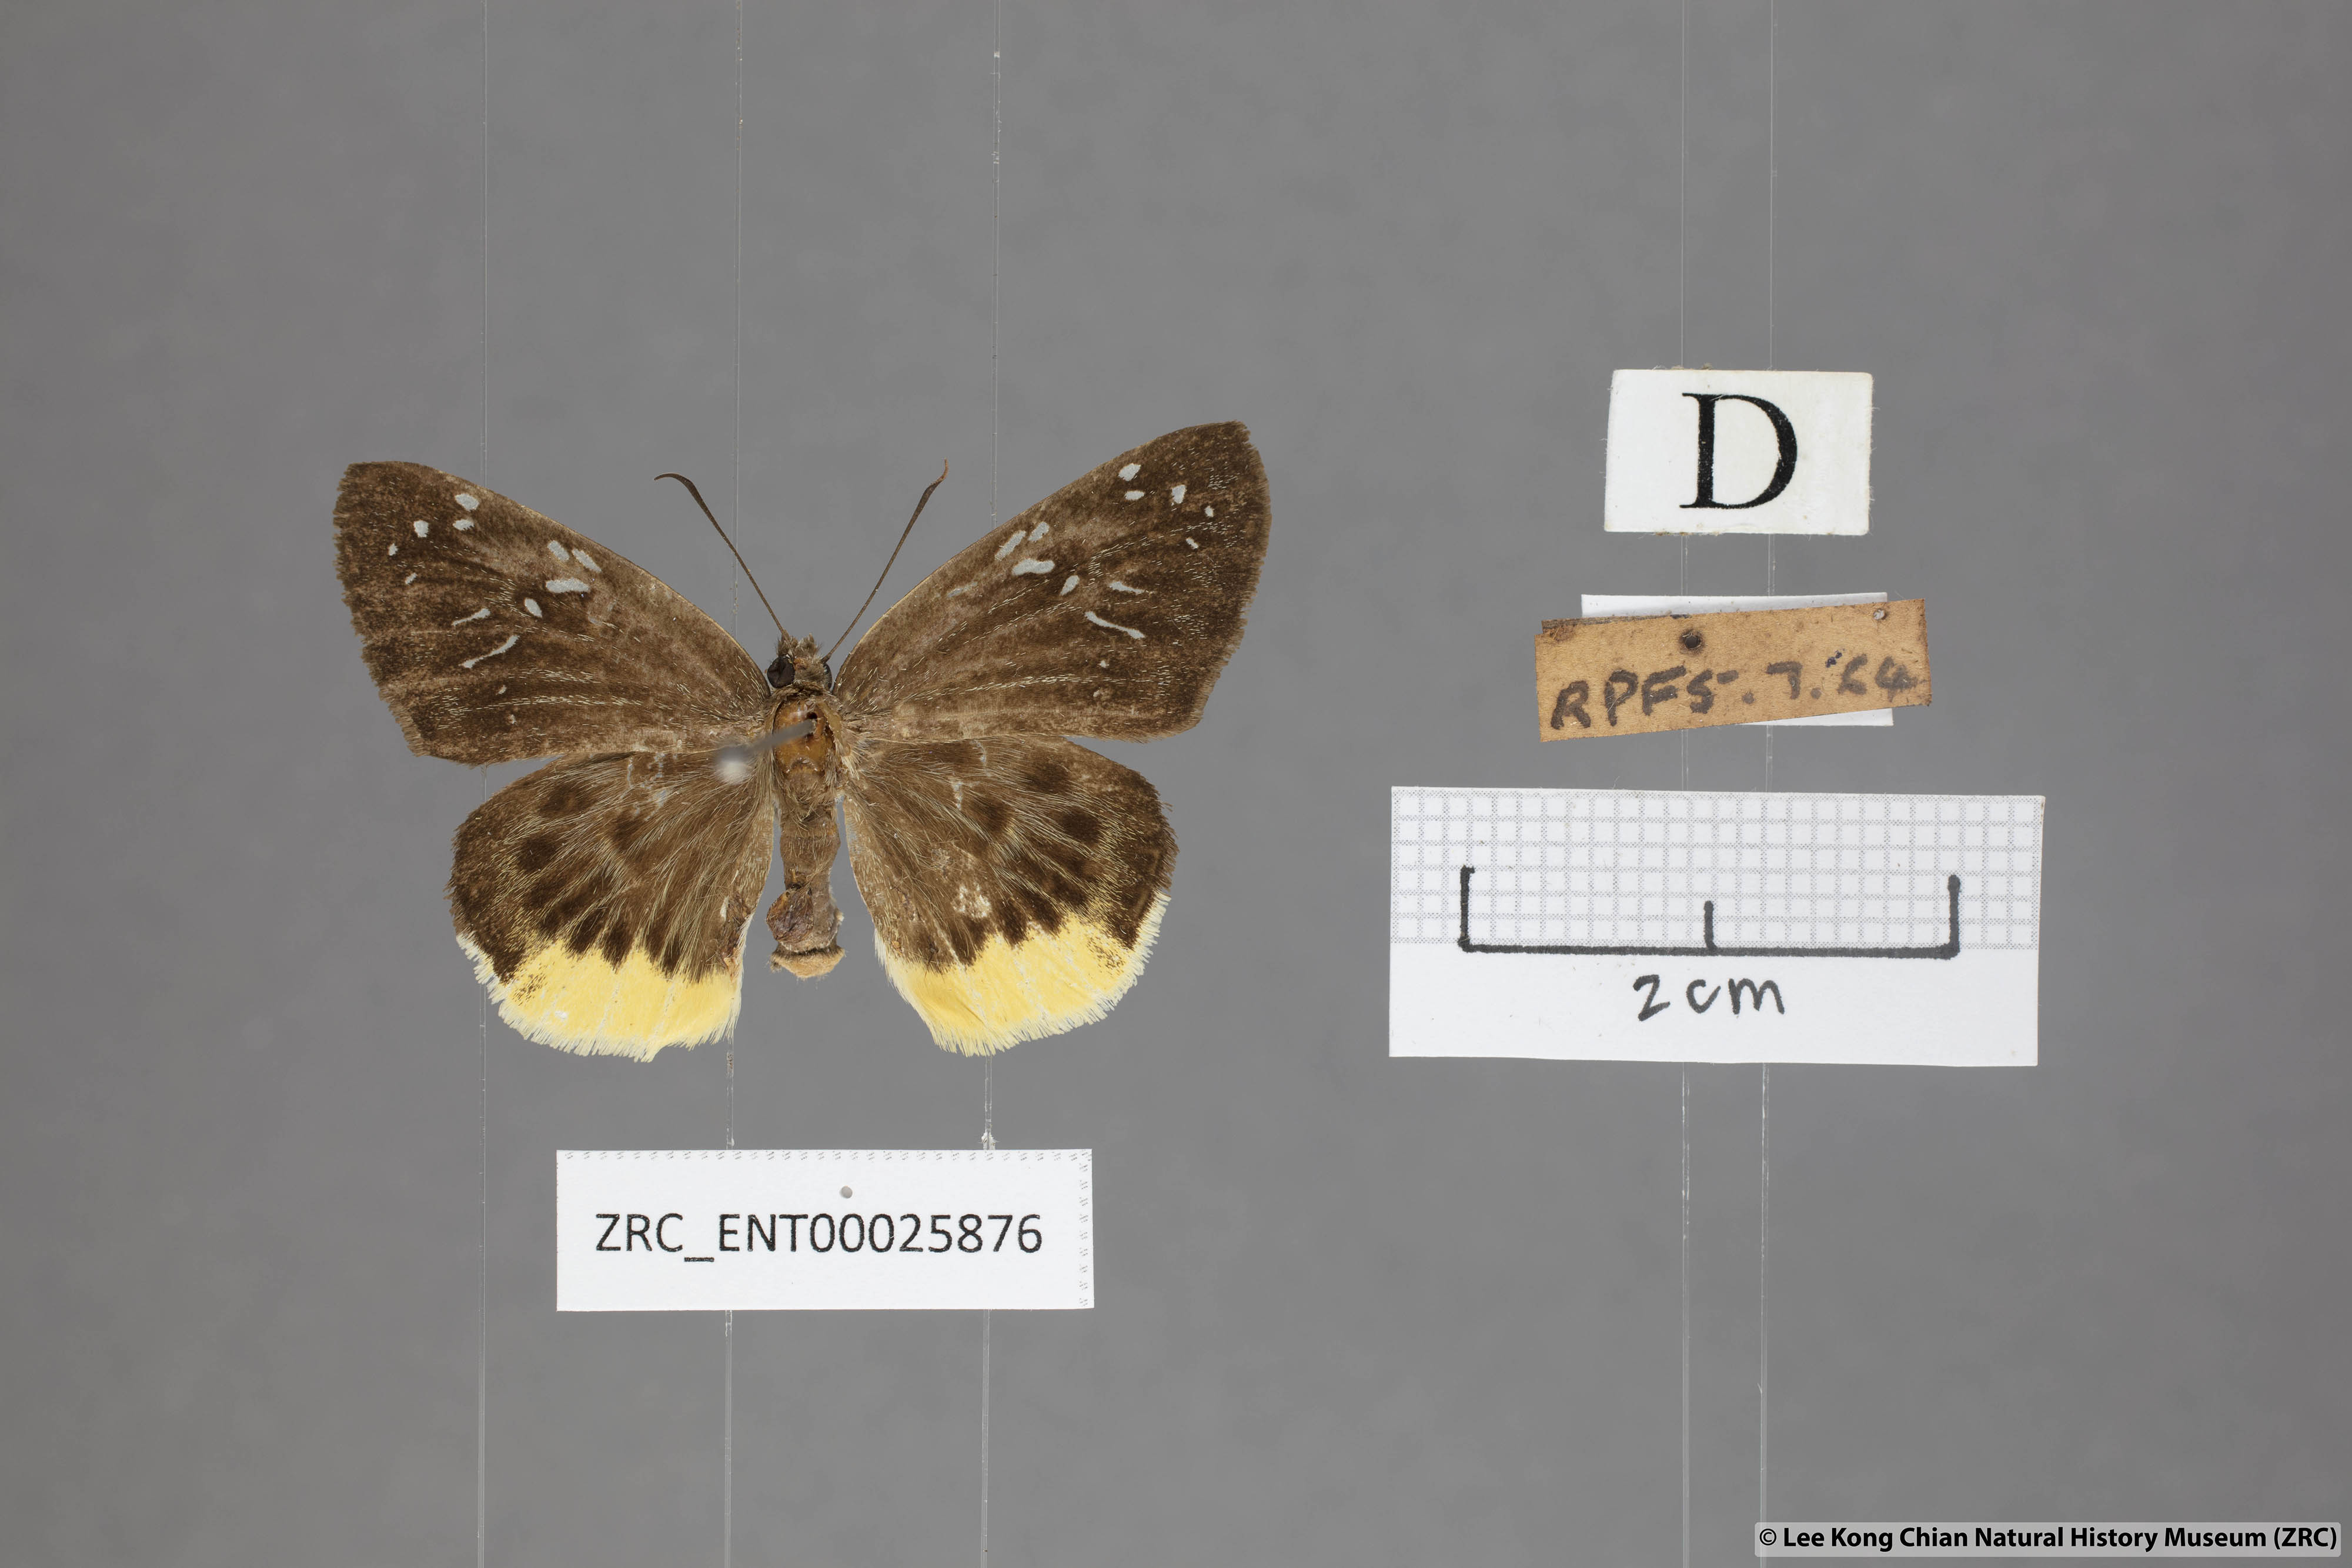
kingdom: Animalia
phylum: Arthropoda
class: Insecta
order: Lepidoptera
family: Hesperiidae
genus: Mooreana
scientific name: Mooreana trichoneura
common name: Yellow flat
